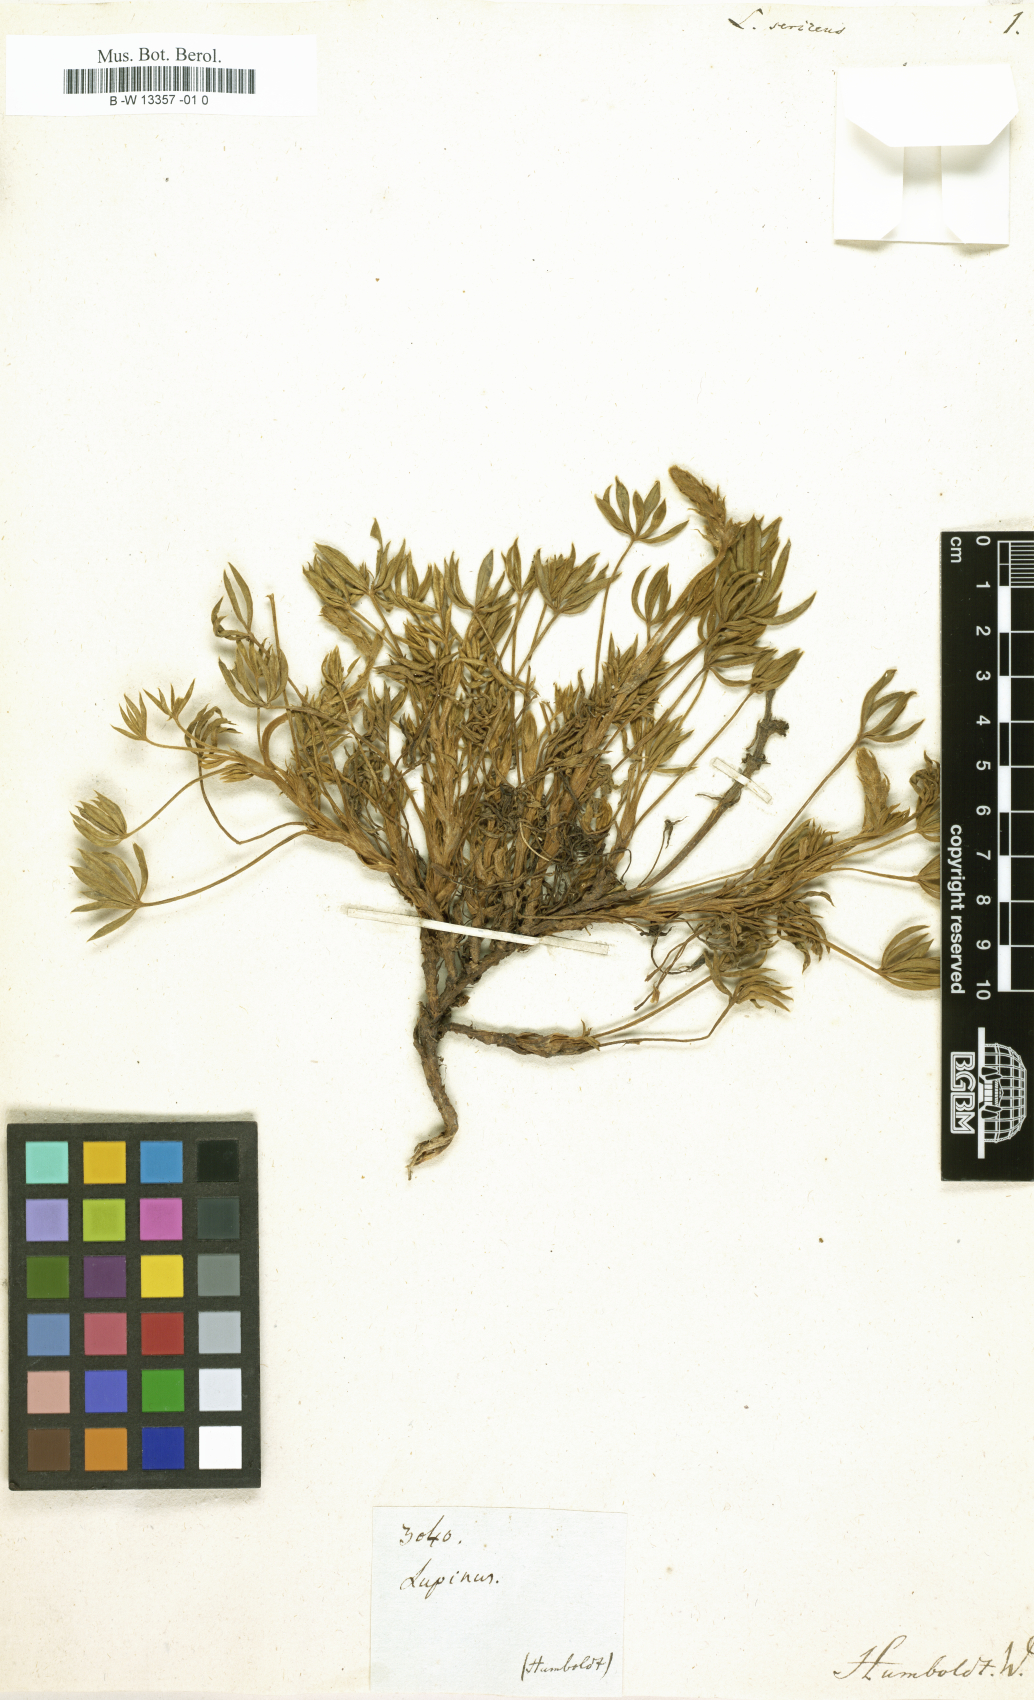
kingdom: Plantae
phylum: Tracheophyta
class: Magnoliopsida
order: Fabales
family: Fabaceae
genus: Lupinus
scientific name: Lupinus sericeus
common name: Silky lupine
